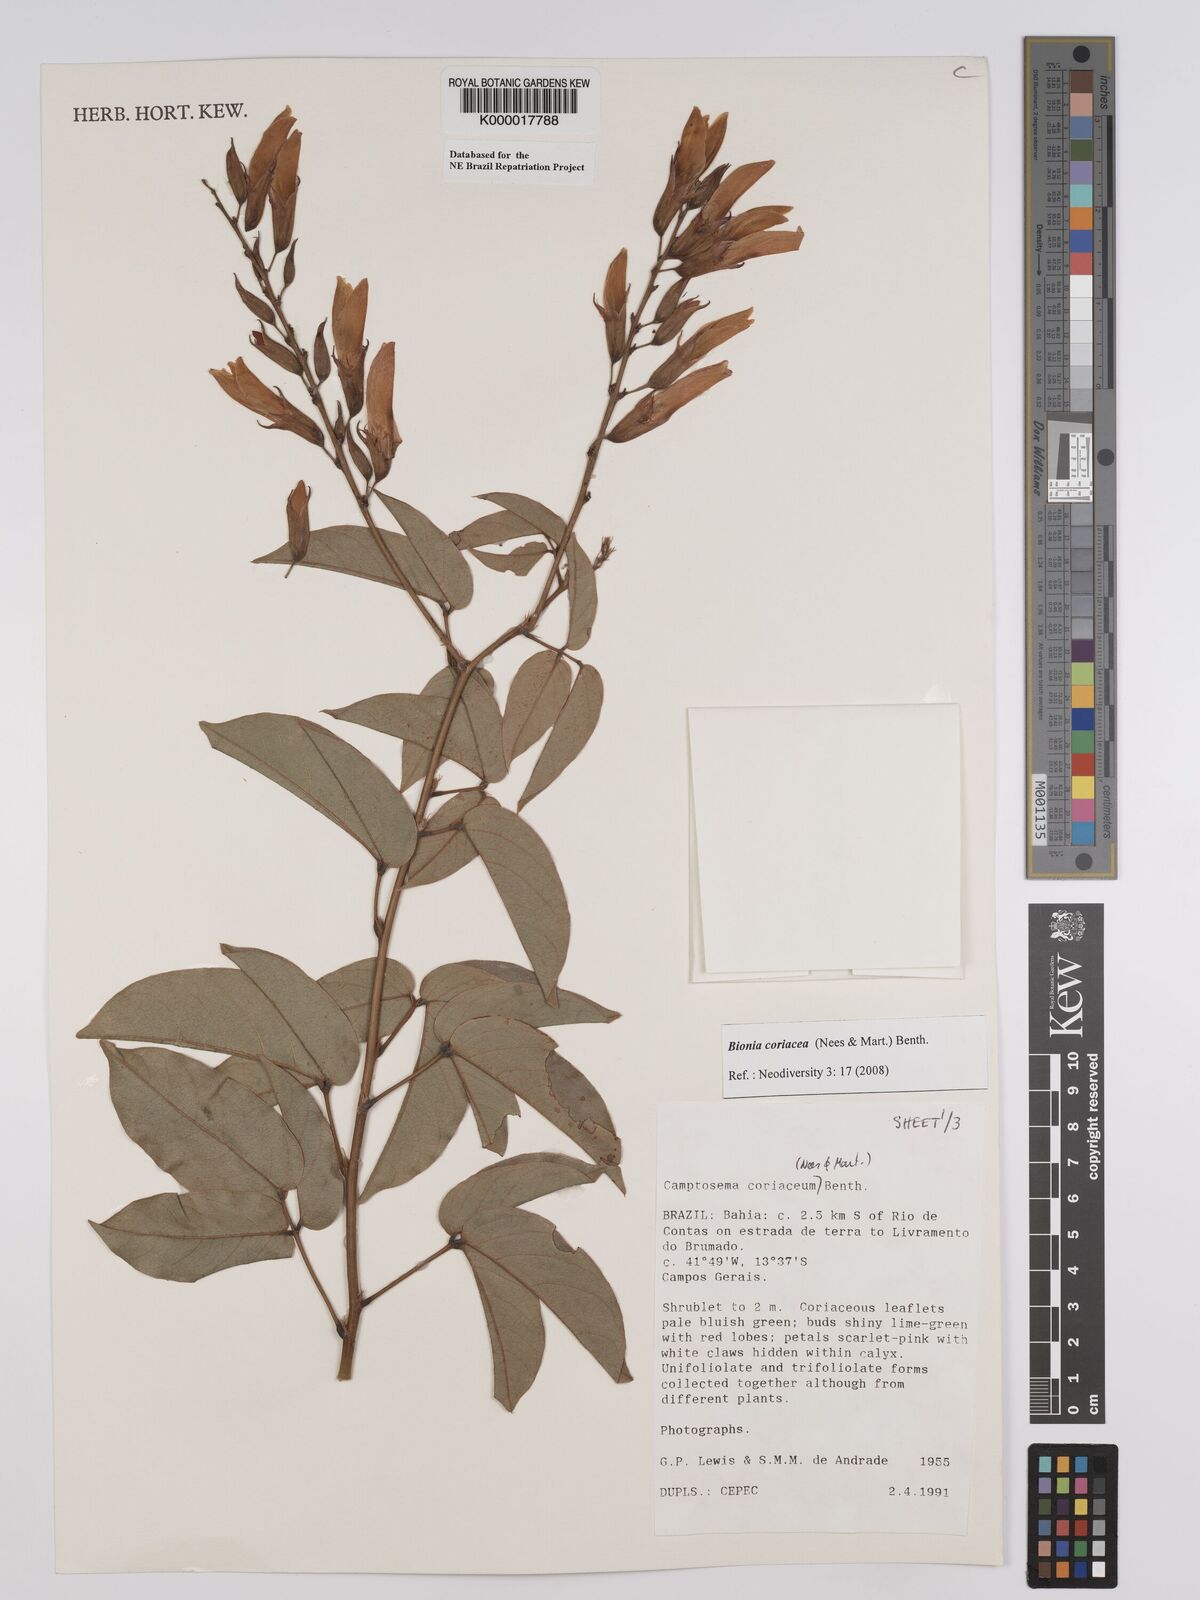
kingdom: Plantae
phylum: Tracheophyta
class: Magnoliopsida
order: Fabales
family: Fabaceae
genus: Camptosema
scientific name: Camptosema coriaceum
